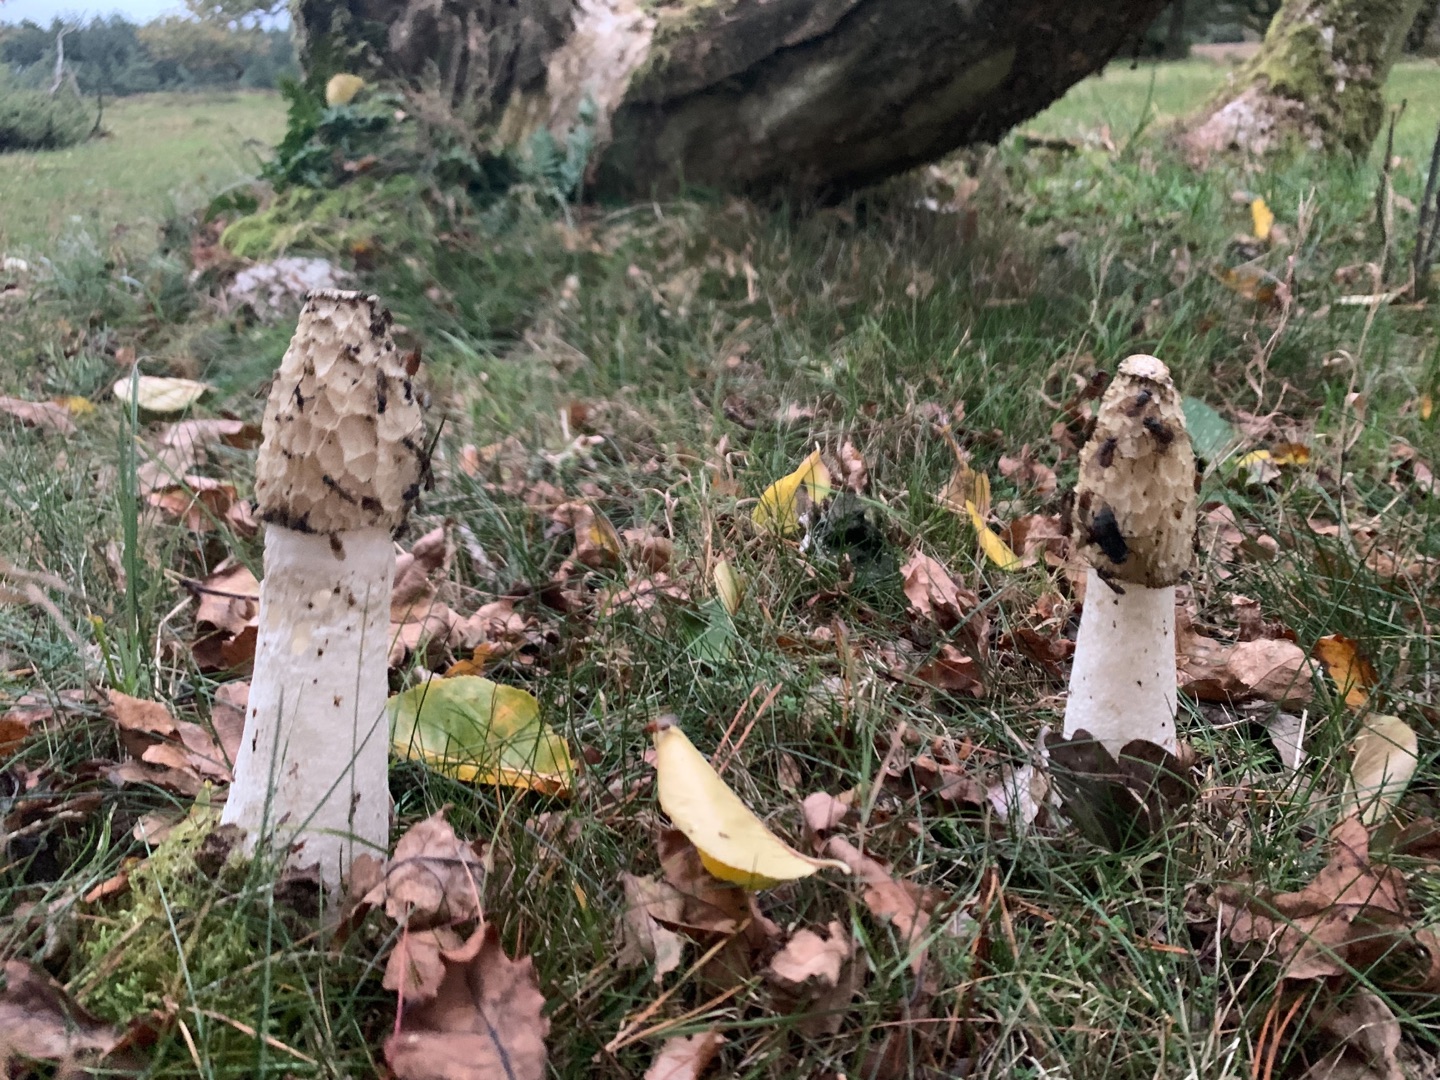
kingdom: Fungi
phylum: Basidiomycota
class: Agaricomycetes
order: Phallales
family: Phallaceae
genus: Phallus
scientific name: Phallus impudicus
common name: Almindelig stinksvamp
